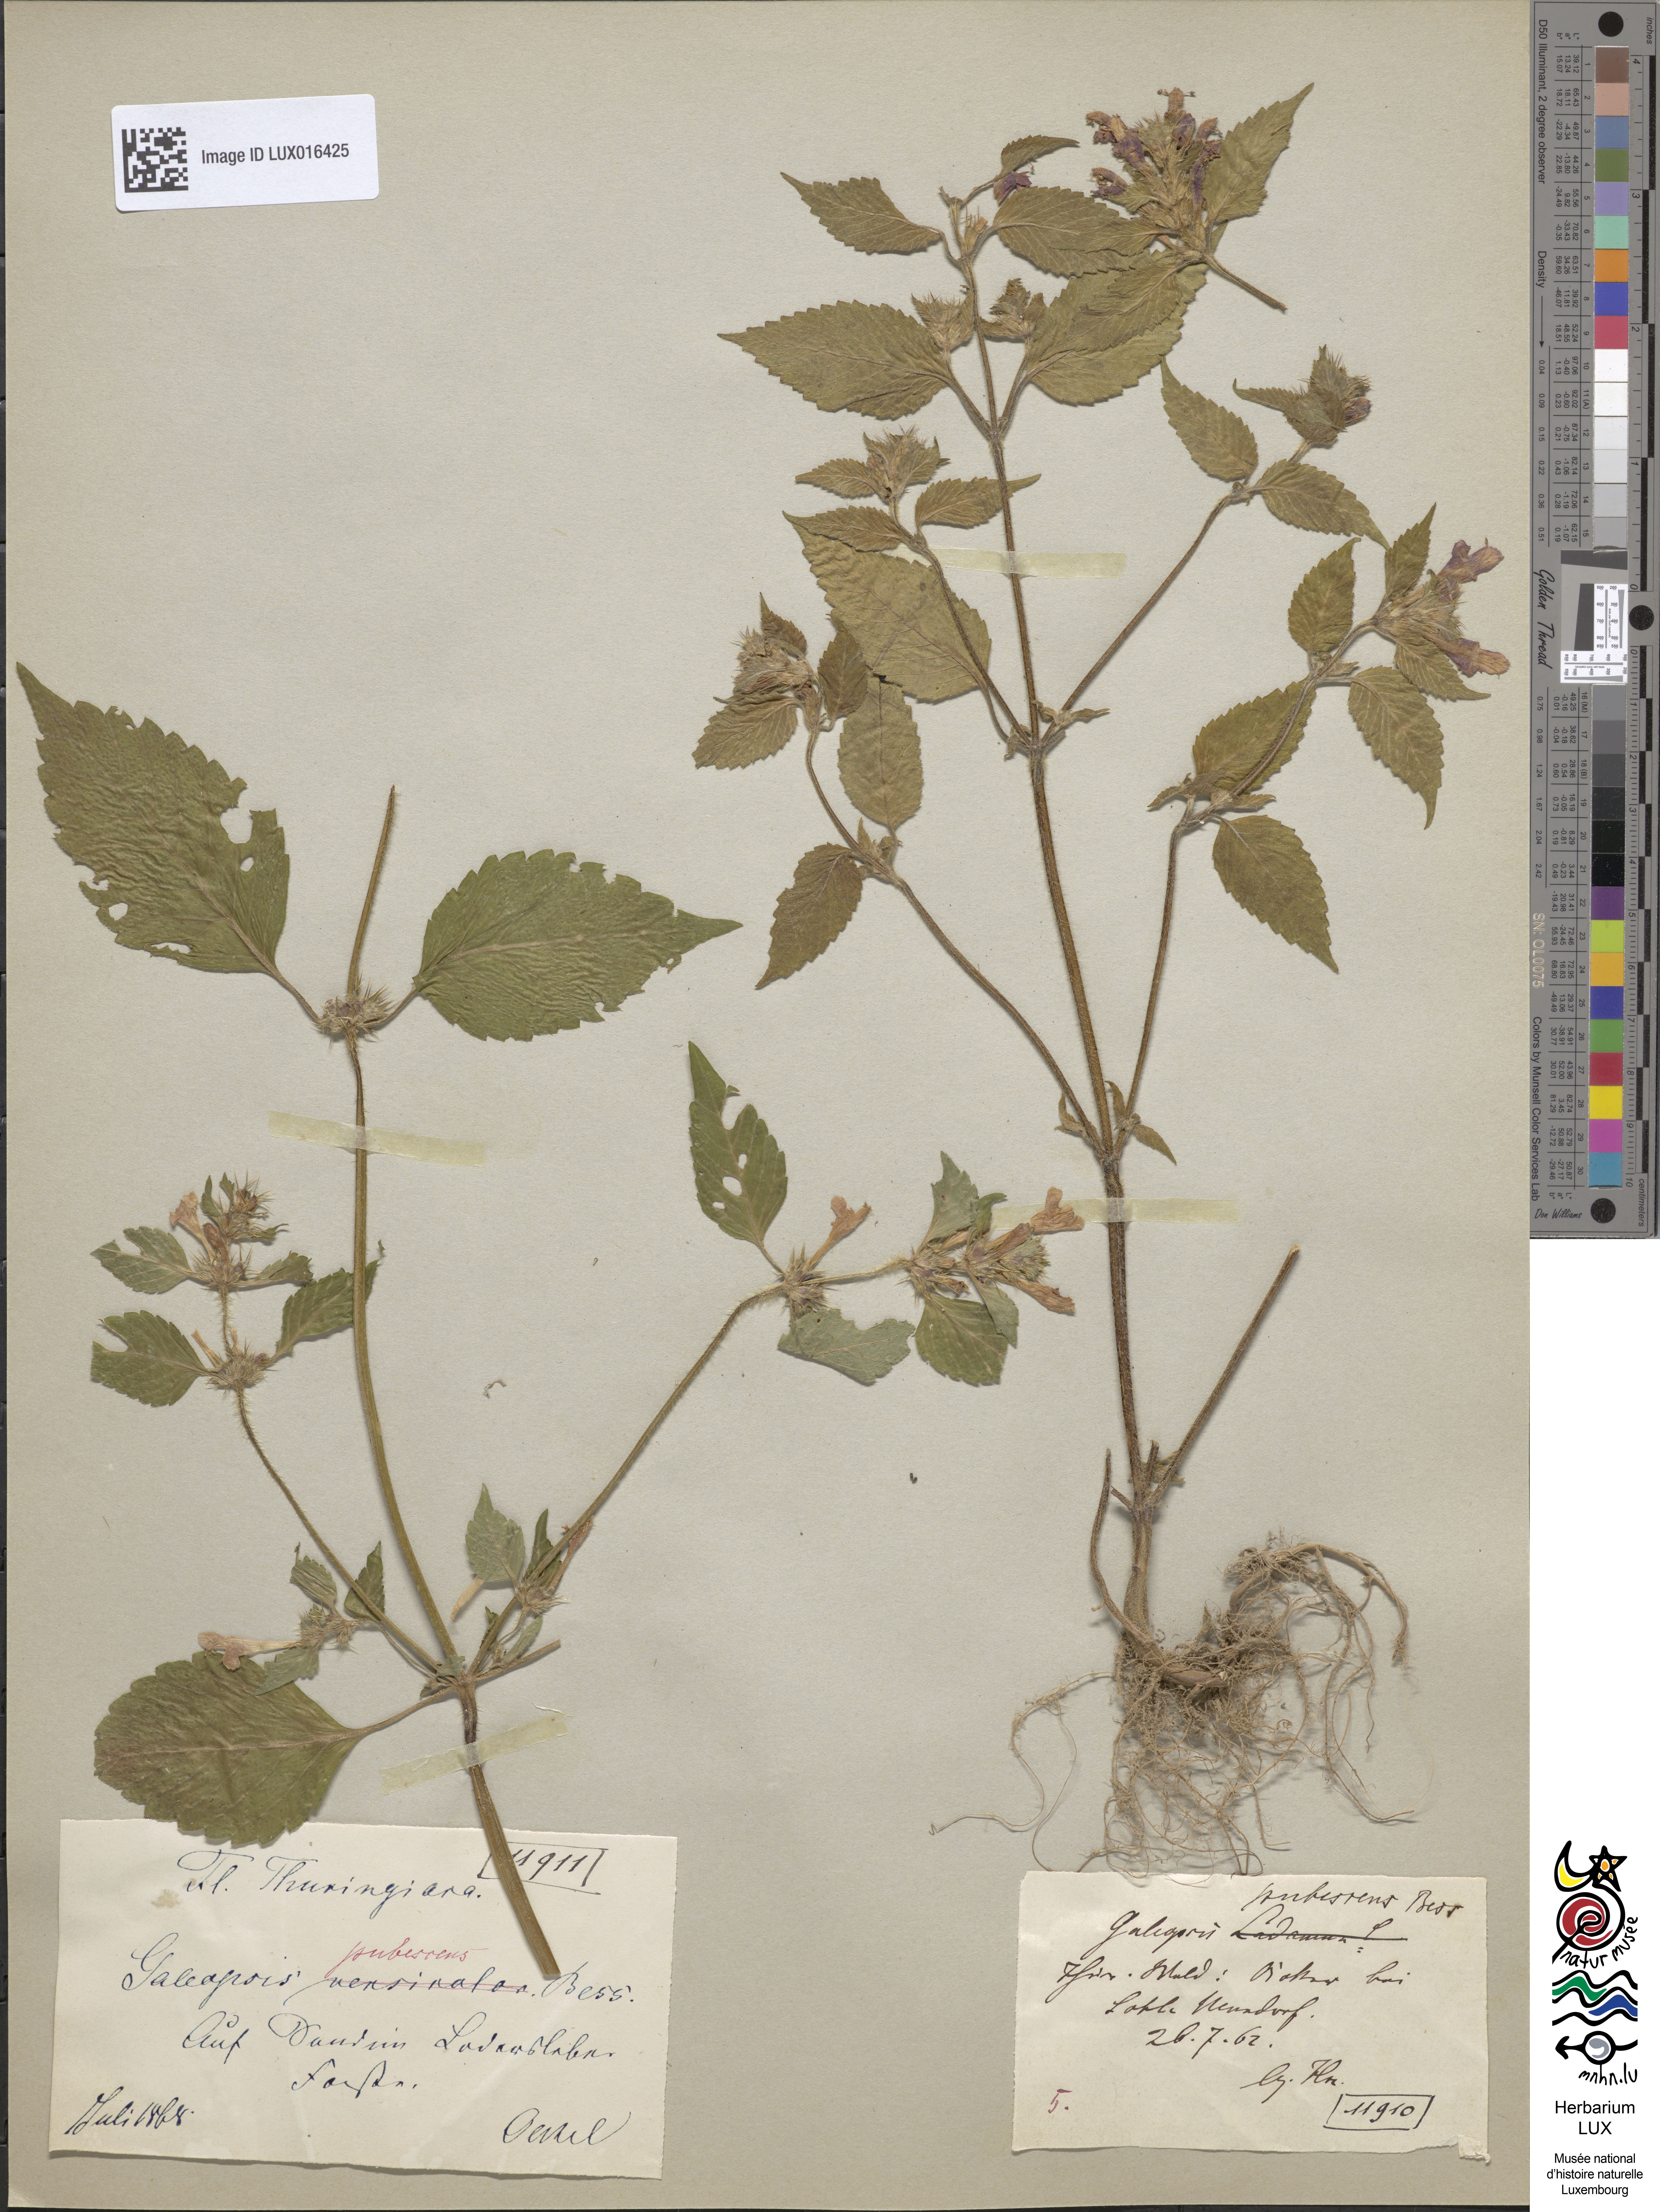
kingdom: Plantae
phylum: Tracheophyta
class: Magnoliopsida
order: Lamiales
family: Lamiaceae
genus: Galeopsis
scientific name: Galeopsis pubescens
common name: Downy hemp-nettle
